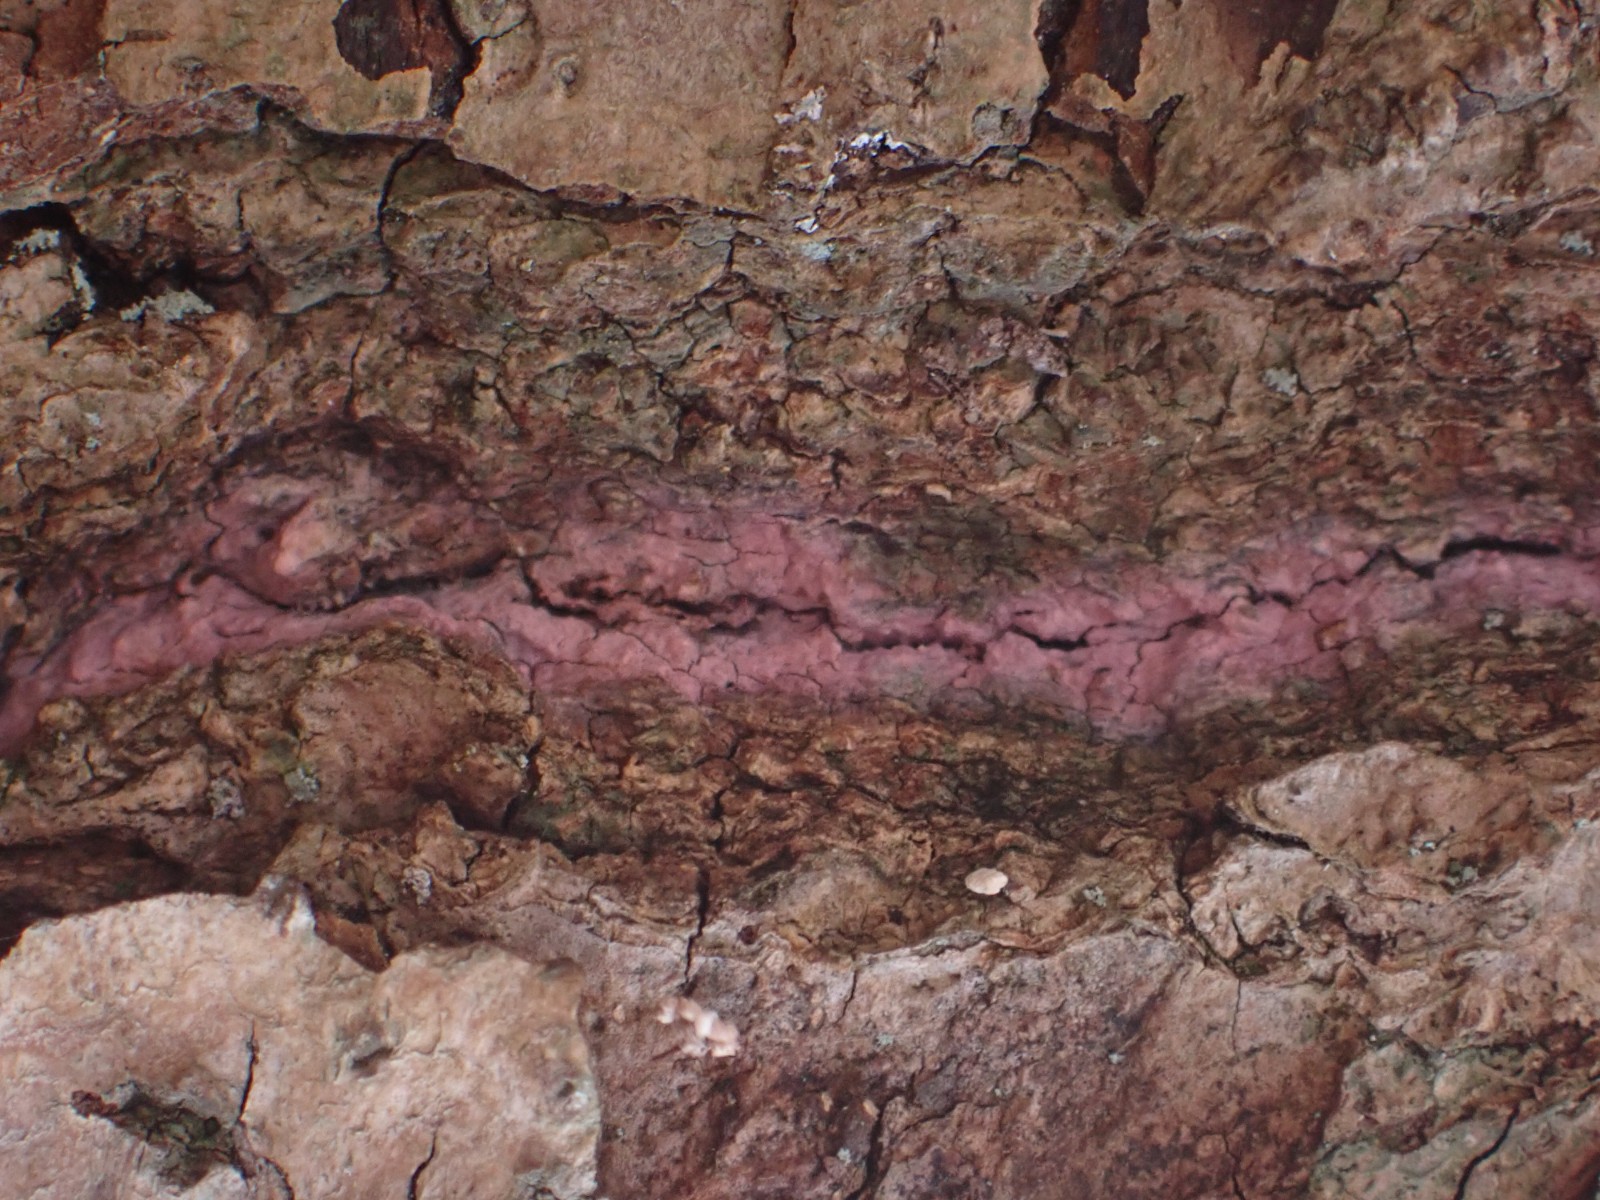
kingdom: Fungi
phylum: Basidiomycota
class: Agaricomycetes
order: Cantharellales
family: Tulasnellaceae
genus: Tulasnella
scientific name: Tulasnella violea
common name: violet ballonhinde
